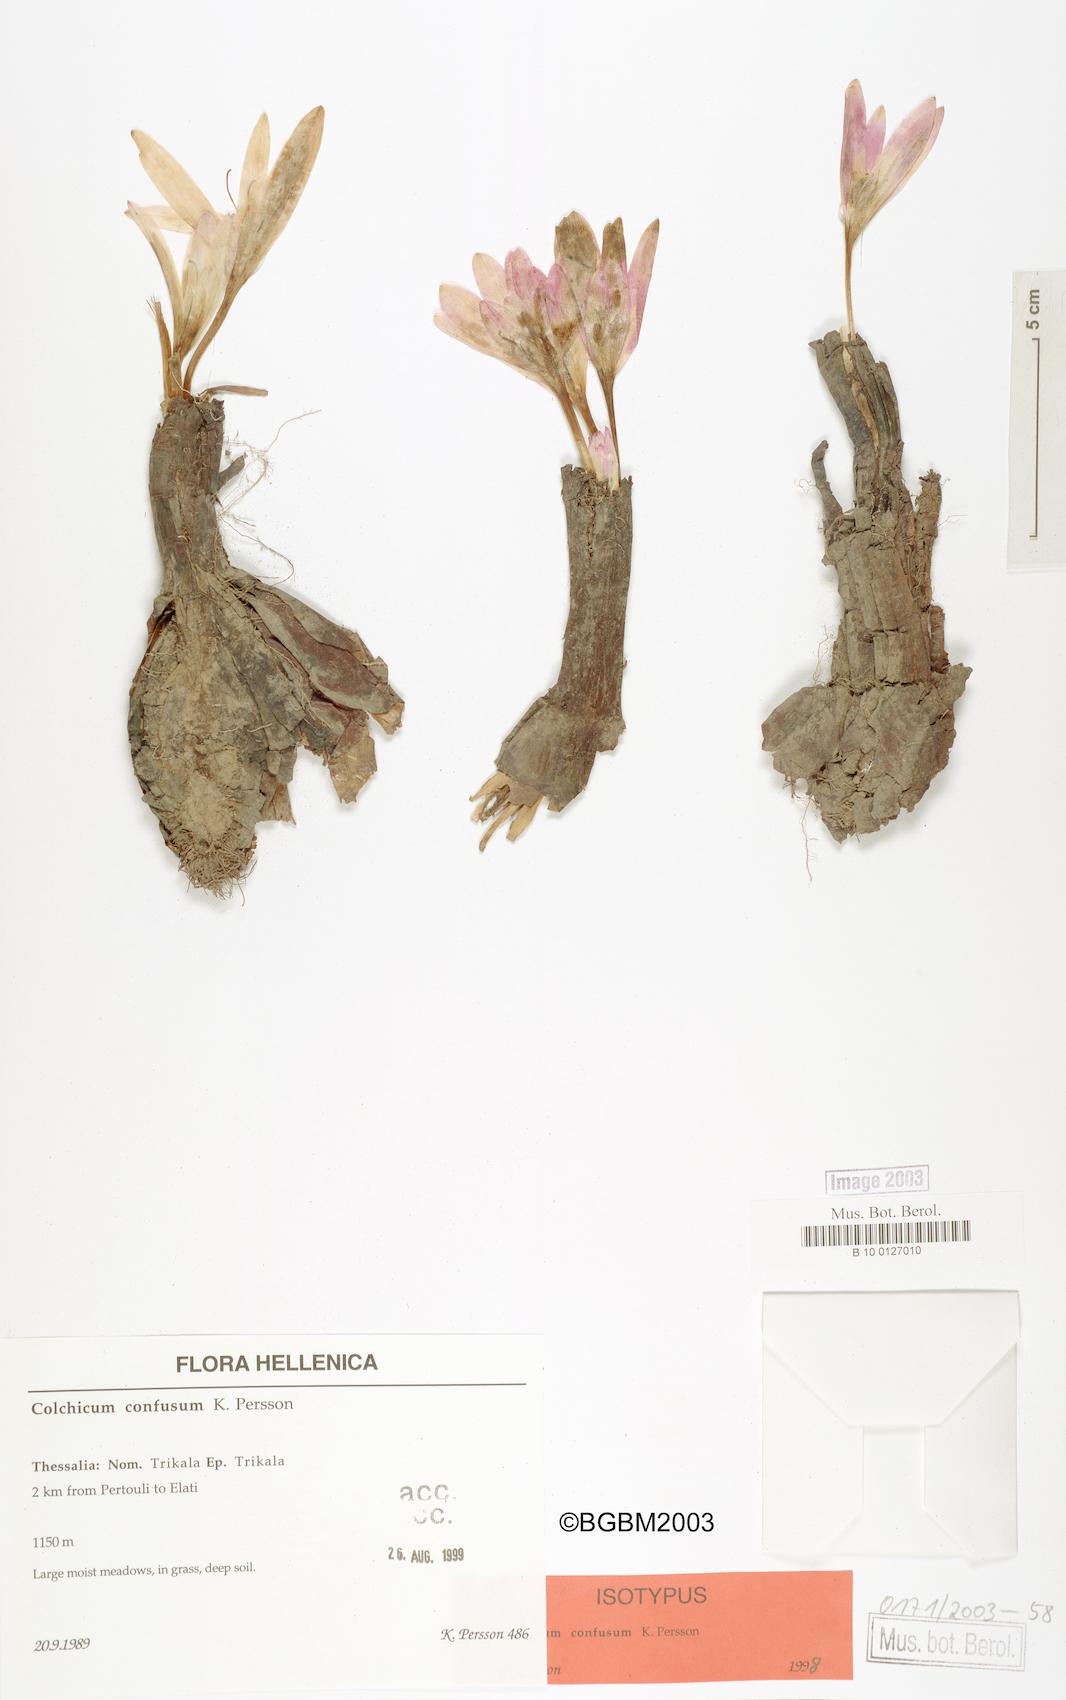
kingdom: Plantae
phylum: Tracheophyta
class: Liliopsida
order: Liliales
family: Colchicaceae
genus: Colchicum
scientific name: Colchicum confusum
